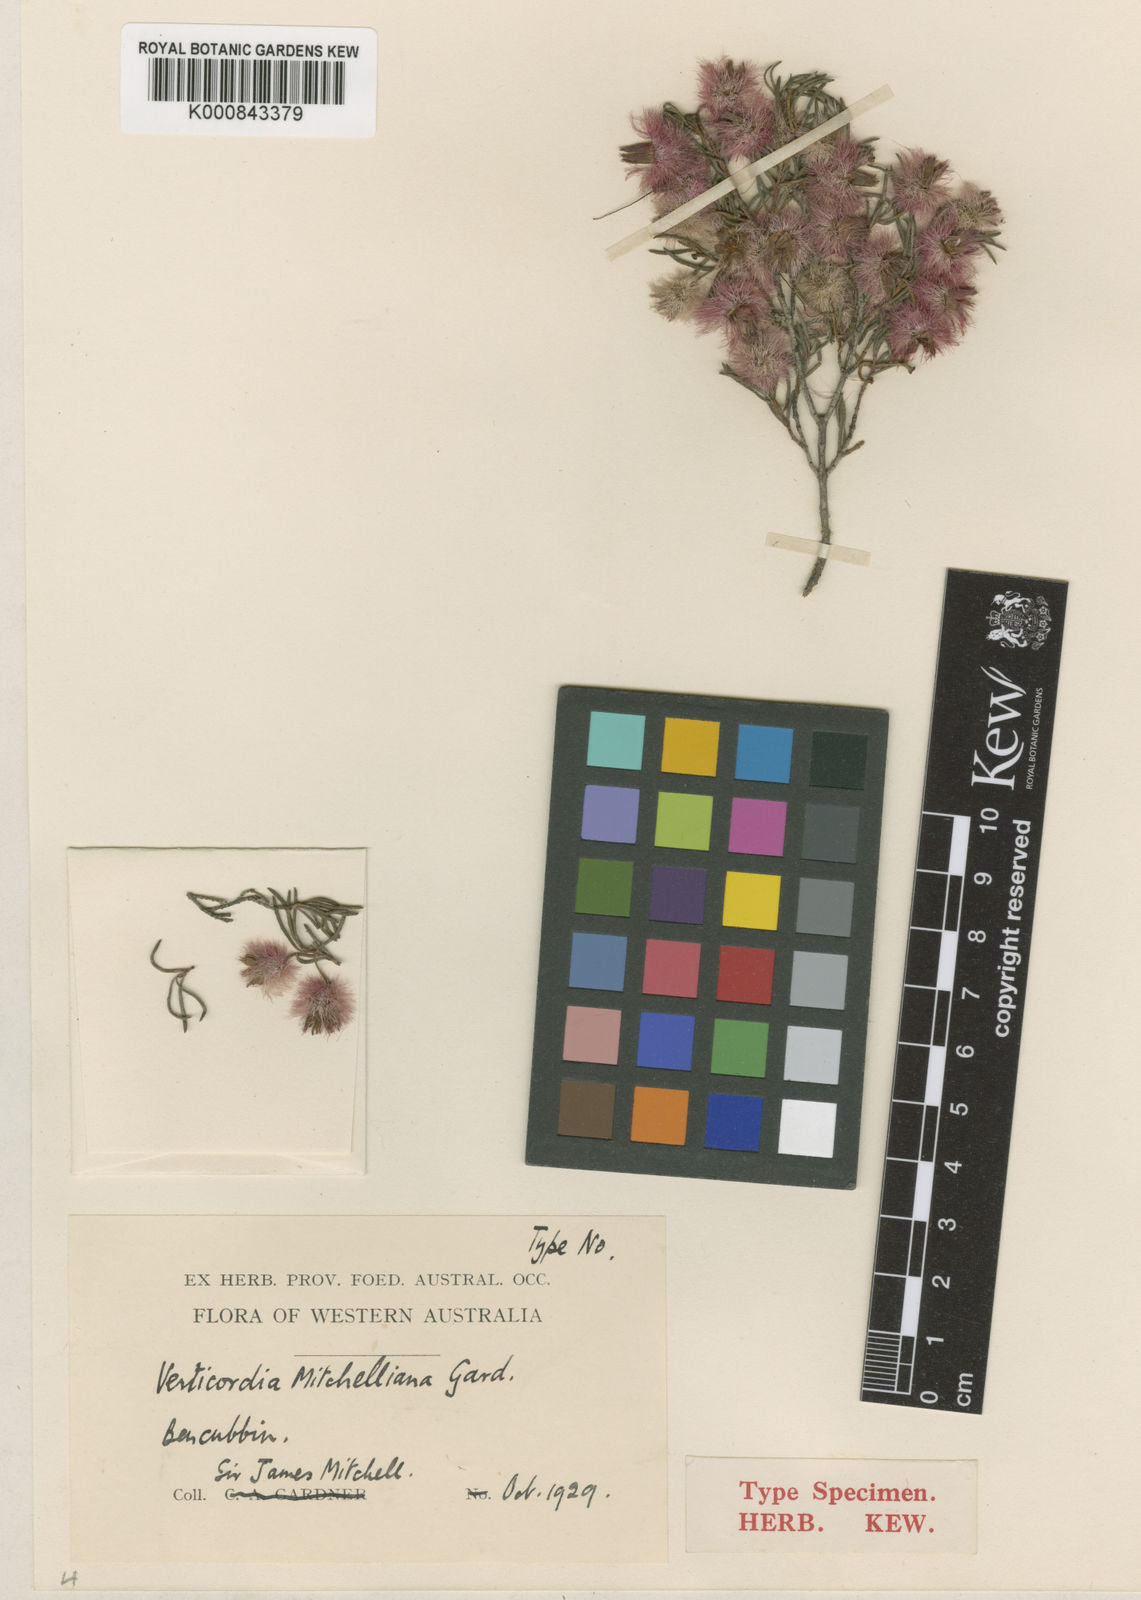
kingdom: Plantae
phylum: Tracheophyta
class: Magnoliopsida
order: Myrtales
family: Myrtaceae
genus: Verticordia
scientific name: Verticordia mitchelliana
